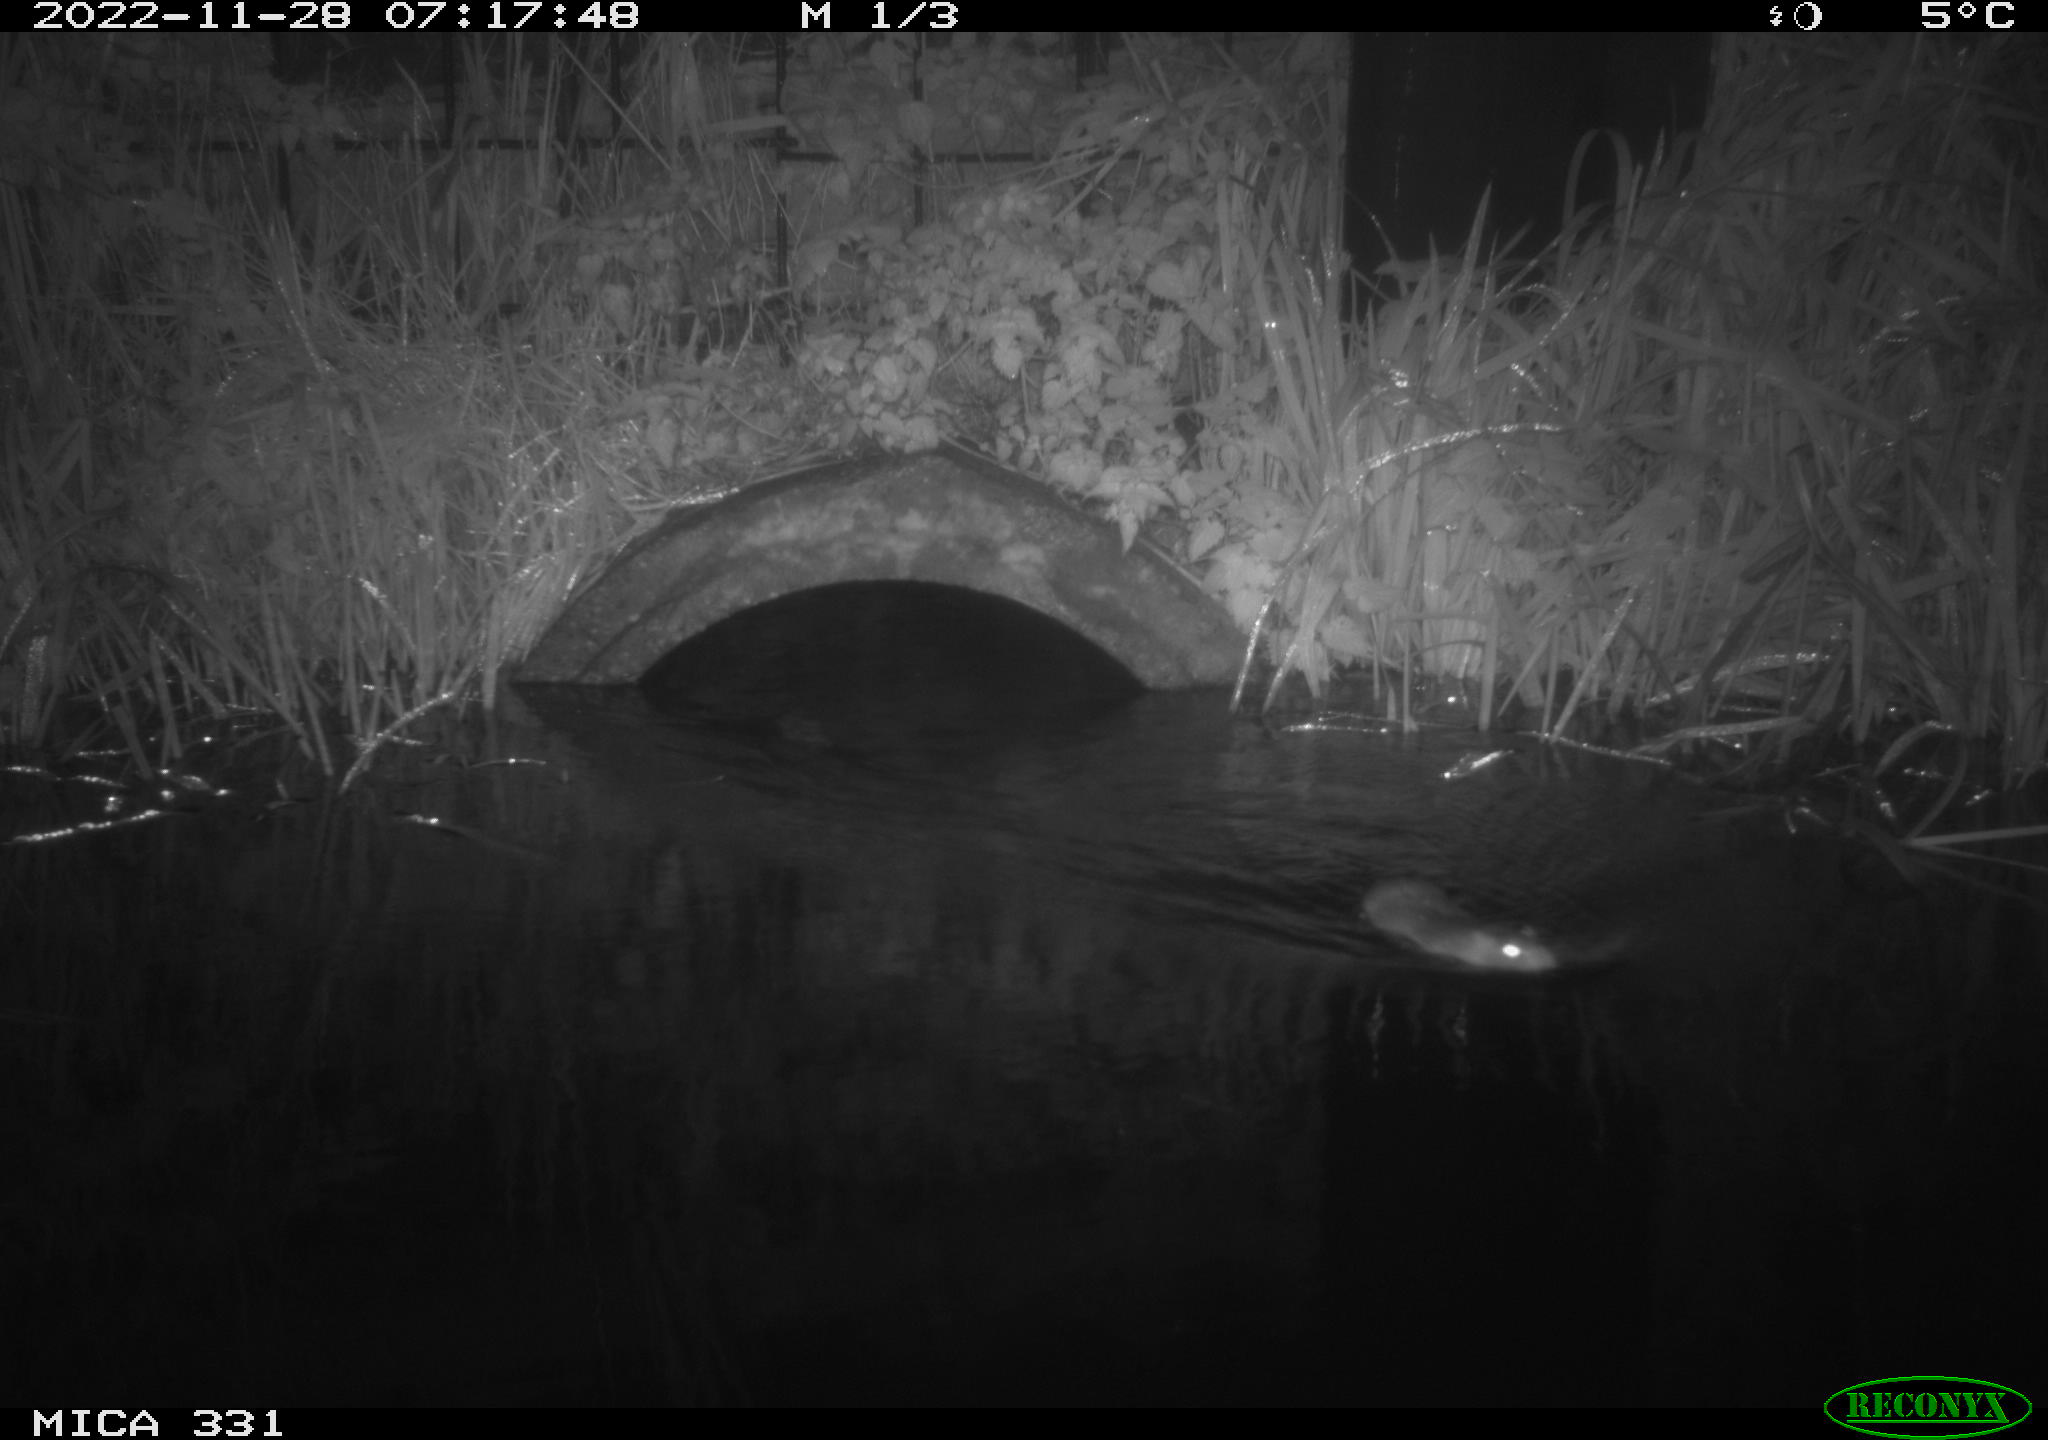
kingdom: Animalia
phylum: Chordata
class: Mammalia
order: Rodentia
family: Muridae
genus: Rattus
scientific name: Rattus norvegicus
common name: Brown rat
